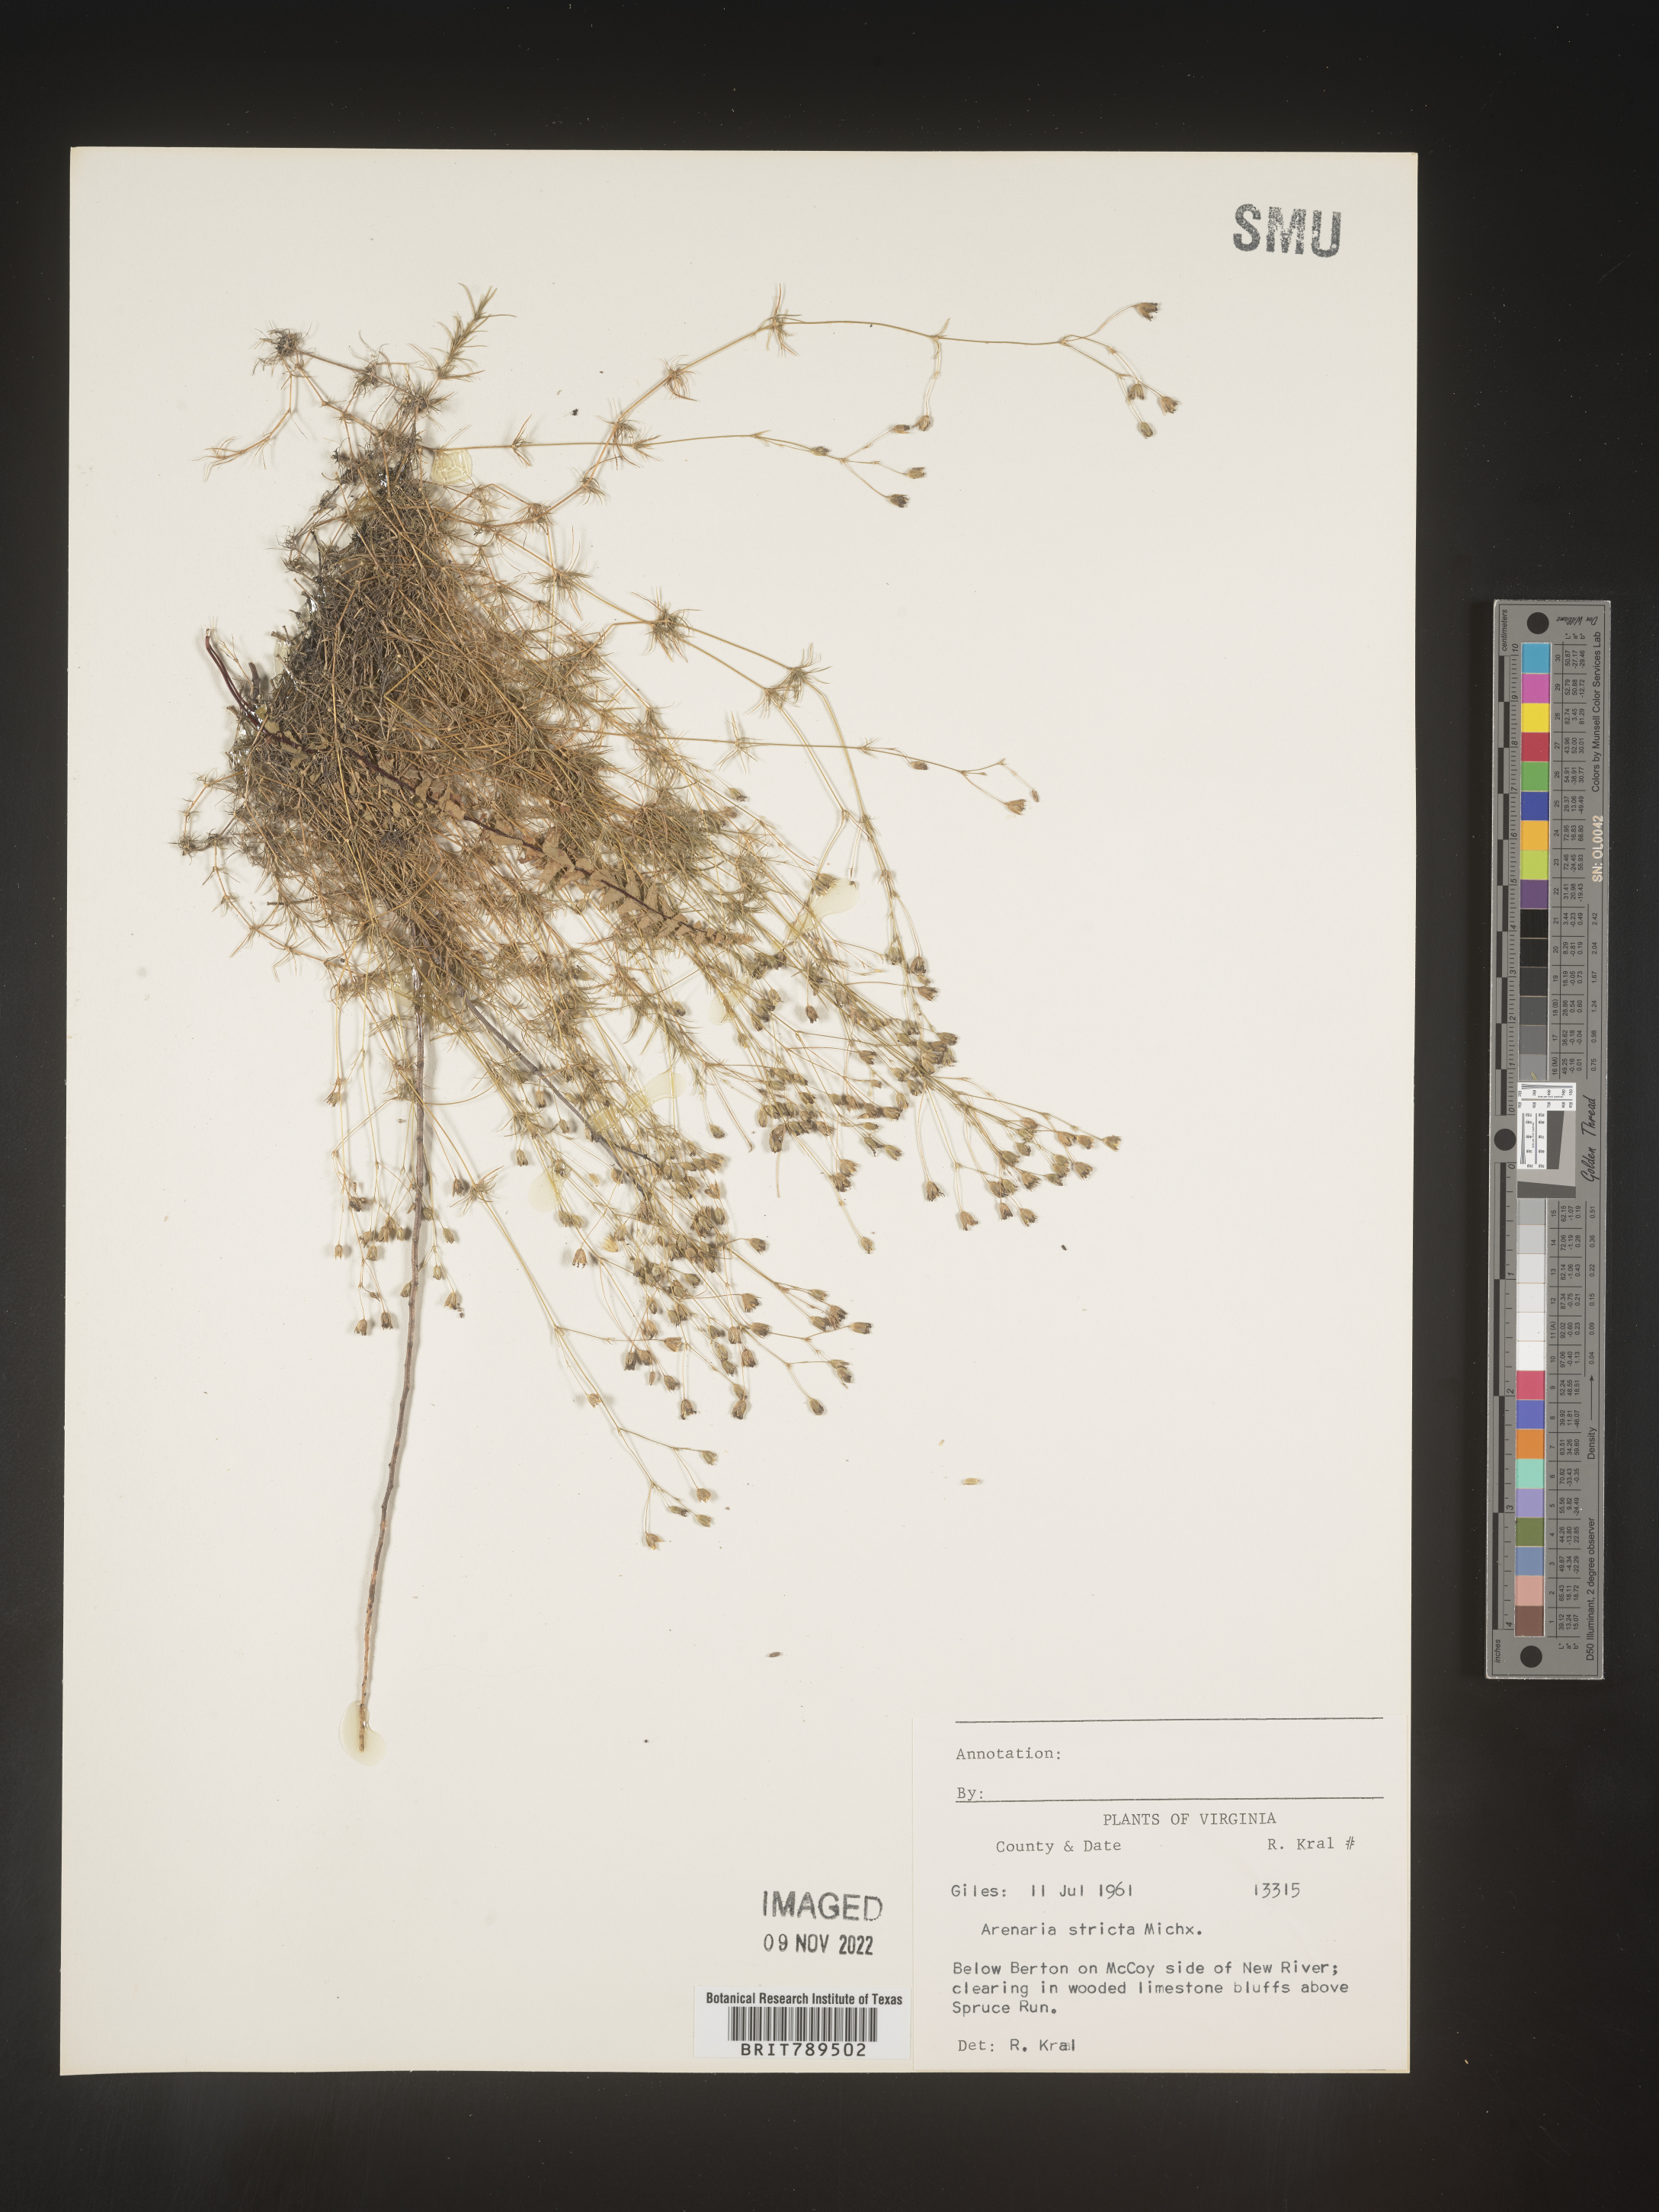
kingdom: Plantae
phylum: Tracheophyta
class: Magnoliopsida
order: Caryophyllales
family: Caryophyllaceae
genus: Sabulina
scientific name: Sabulina michauxii
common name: Michaux's stitchwort
